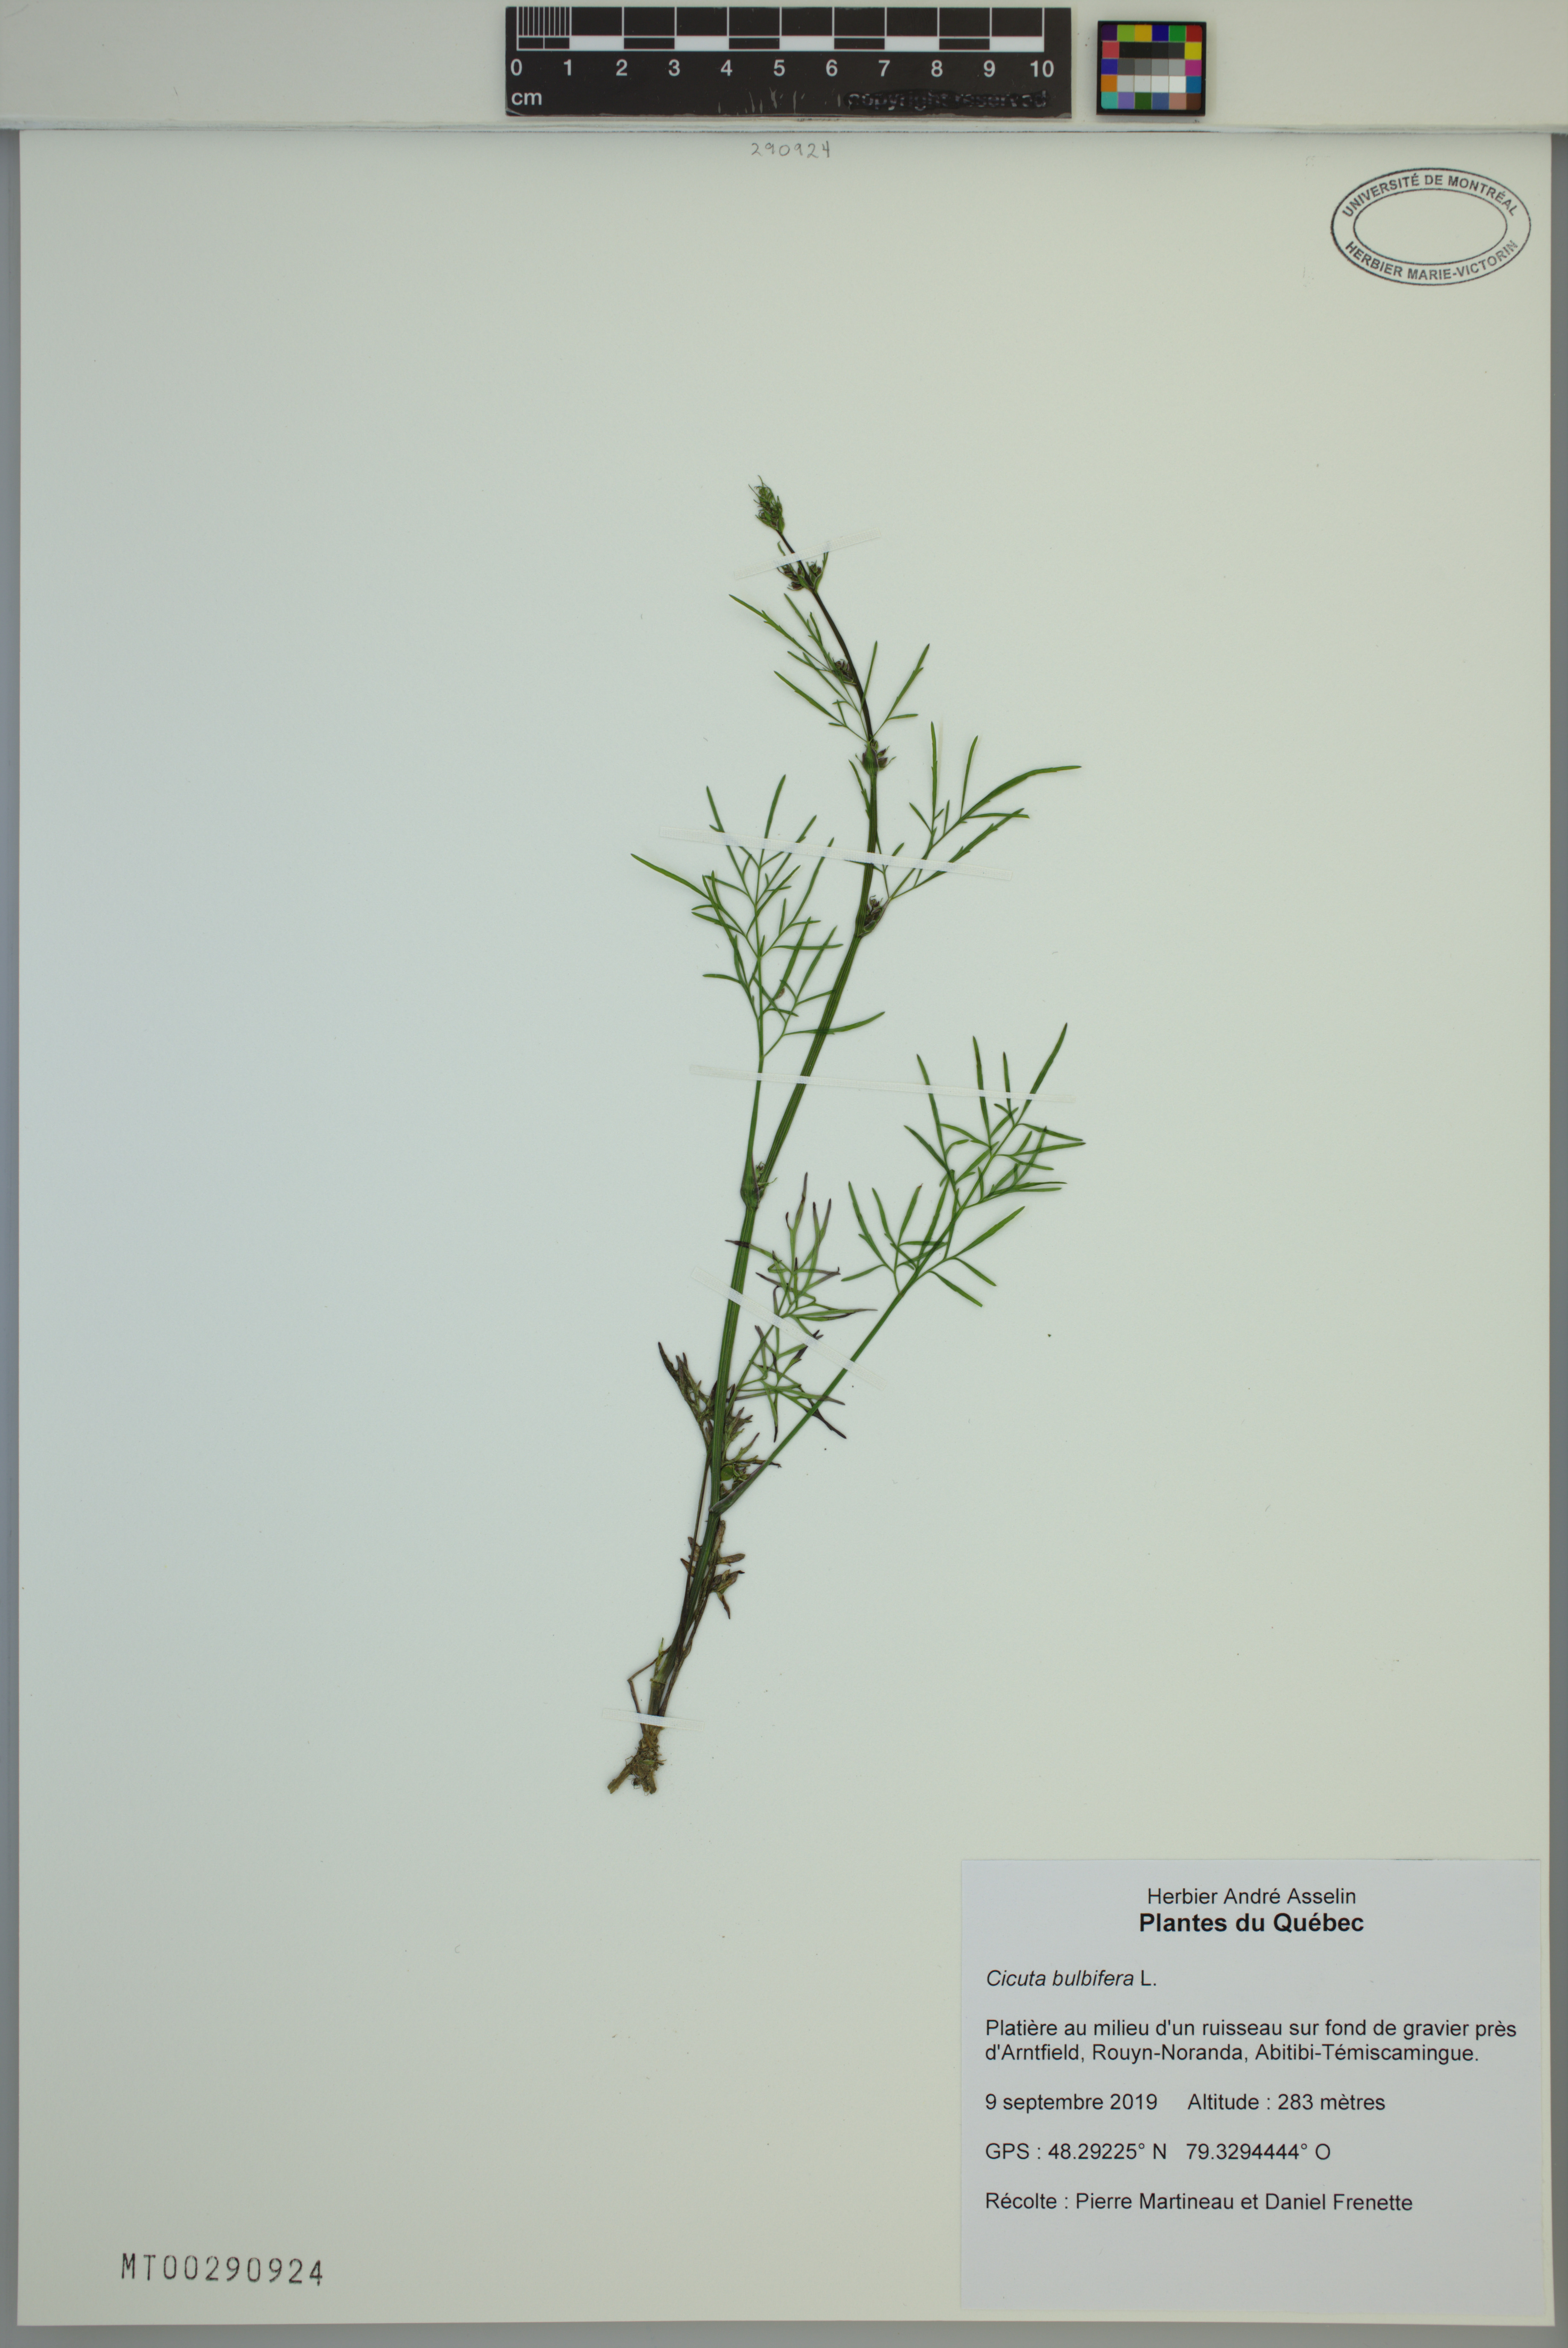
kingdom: Plantae
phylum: Tracheophyta
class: Magnoliopsida
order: Apiales
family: Apiaceae
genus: Cicuta
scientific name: Cicuta bulbifera
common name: Bulb-bearing water-hemlock
